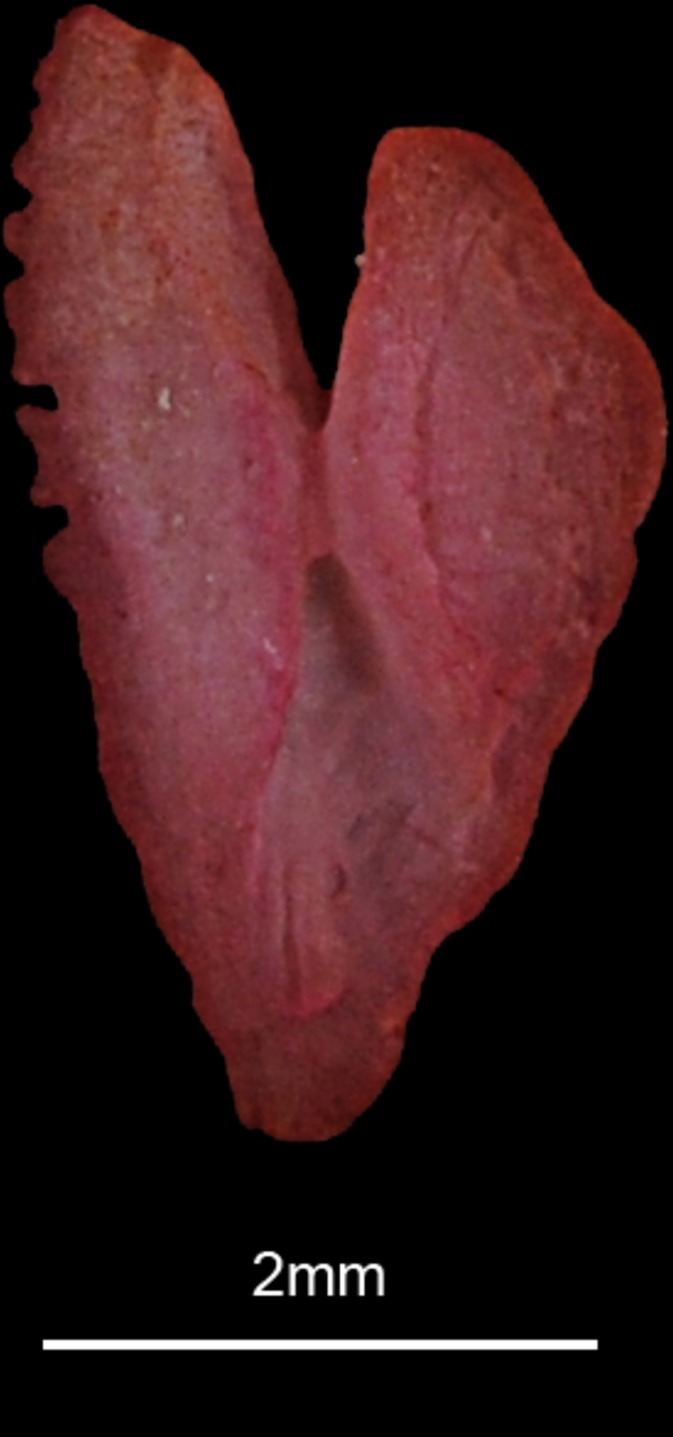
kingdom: Animalia
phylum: Chordata
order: Perciformes
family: Labridae
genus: Symphodus
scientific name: Symphodus tinca
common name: Peacock wrasse
